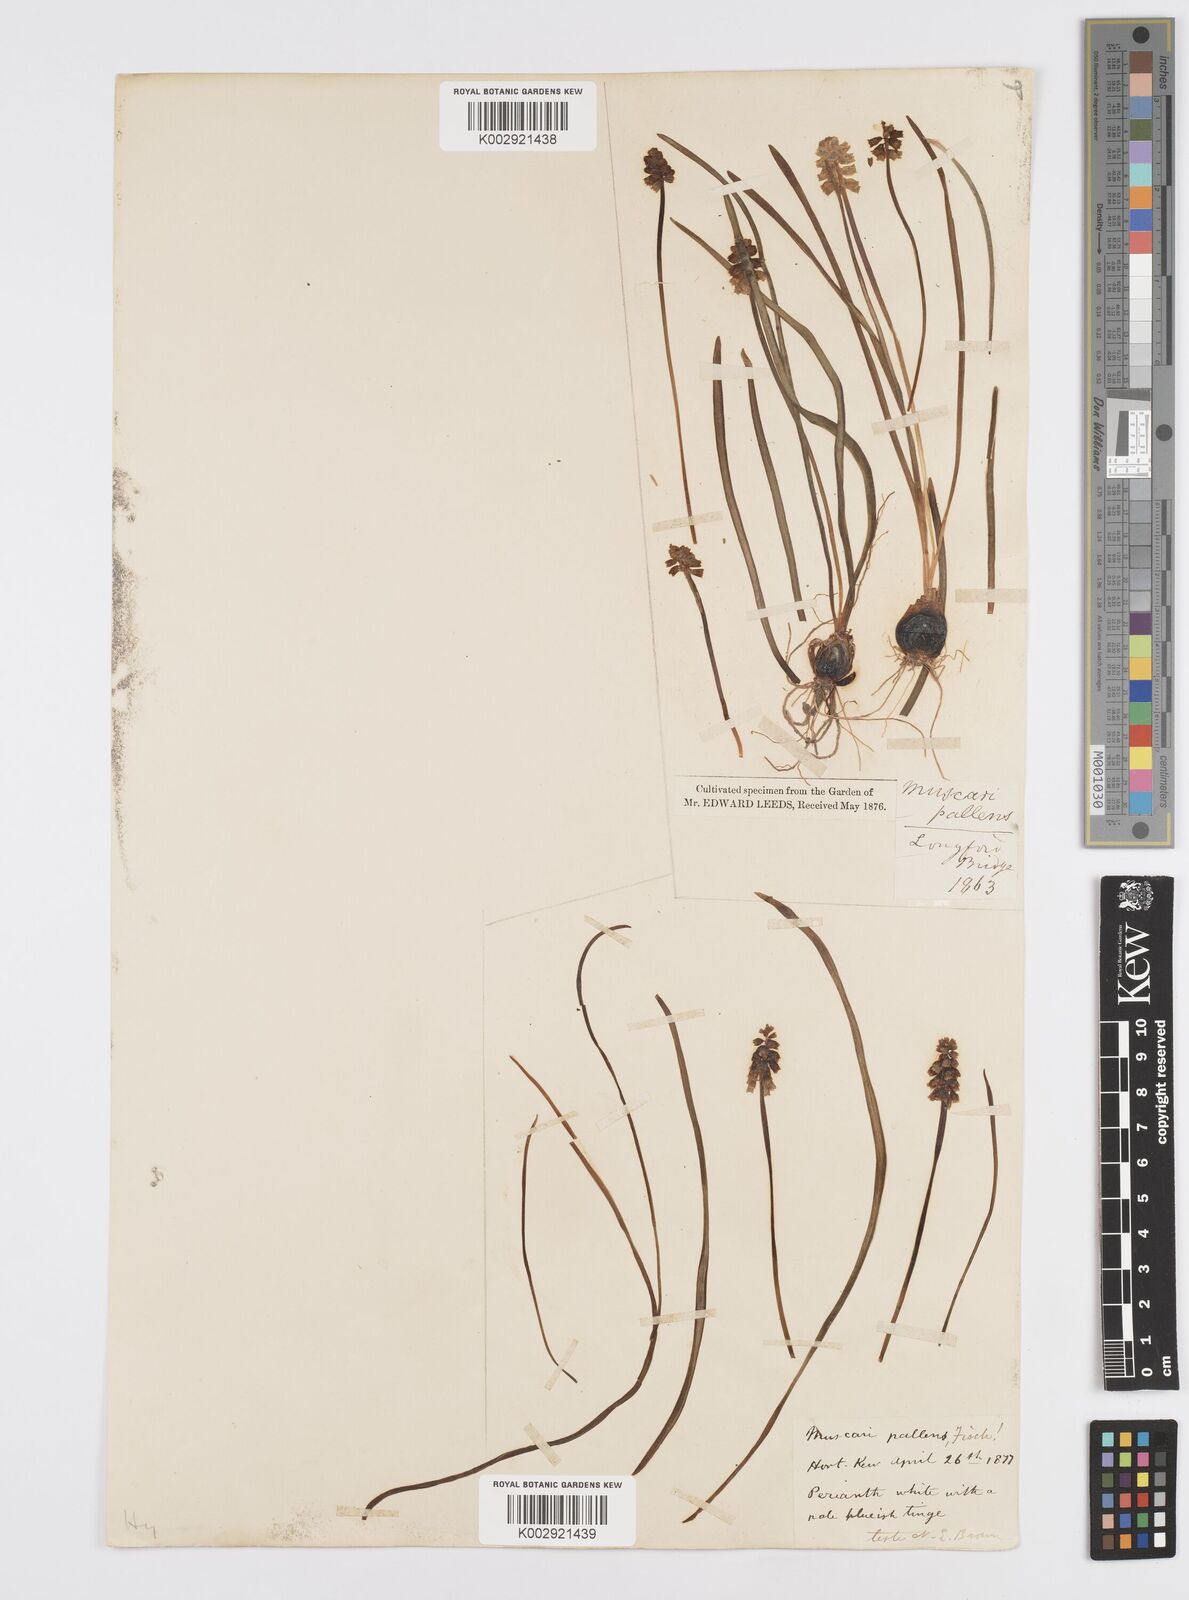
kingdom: Plantae
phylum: Tracheophyta
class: Liliopsida
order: Asparagales
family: Asparagaceae
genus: Muscari
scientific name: Muscari pallens
